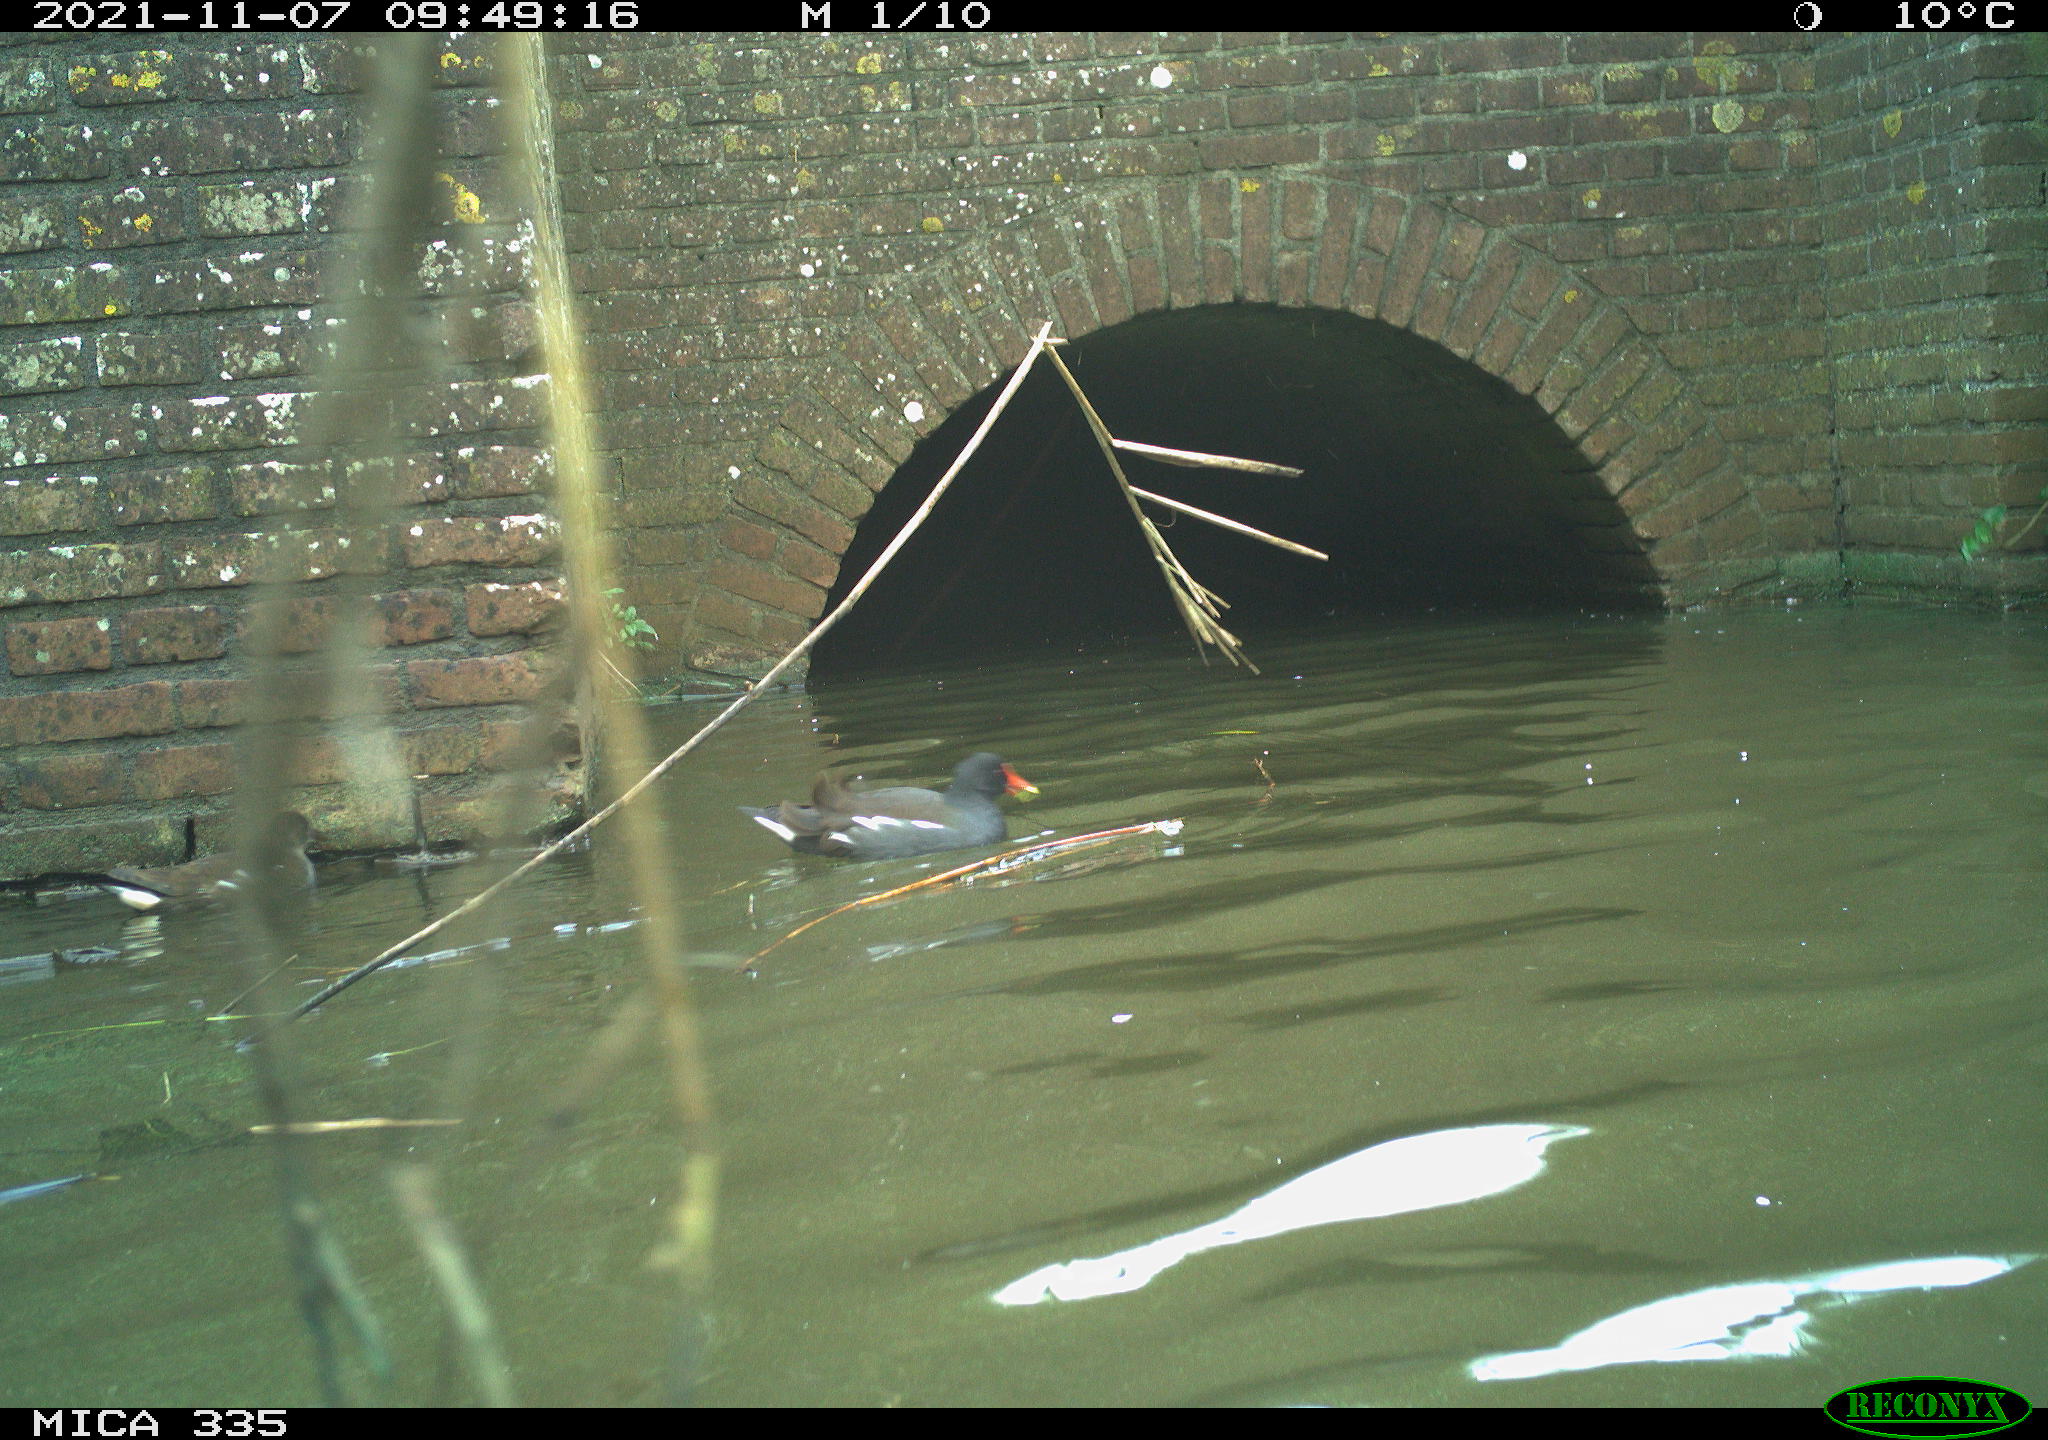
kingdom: Animalia
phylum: Chordata
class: Aves
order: Gruiformes
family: Rallidae
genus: Gallinula
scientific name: Gallinula chloropus
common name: Common moorhen
